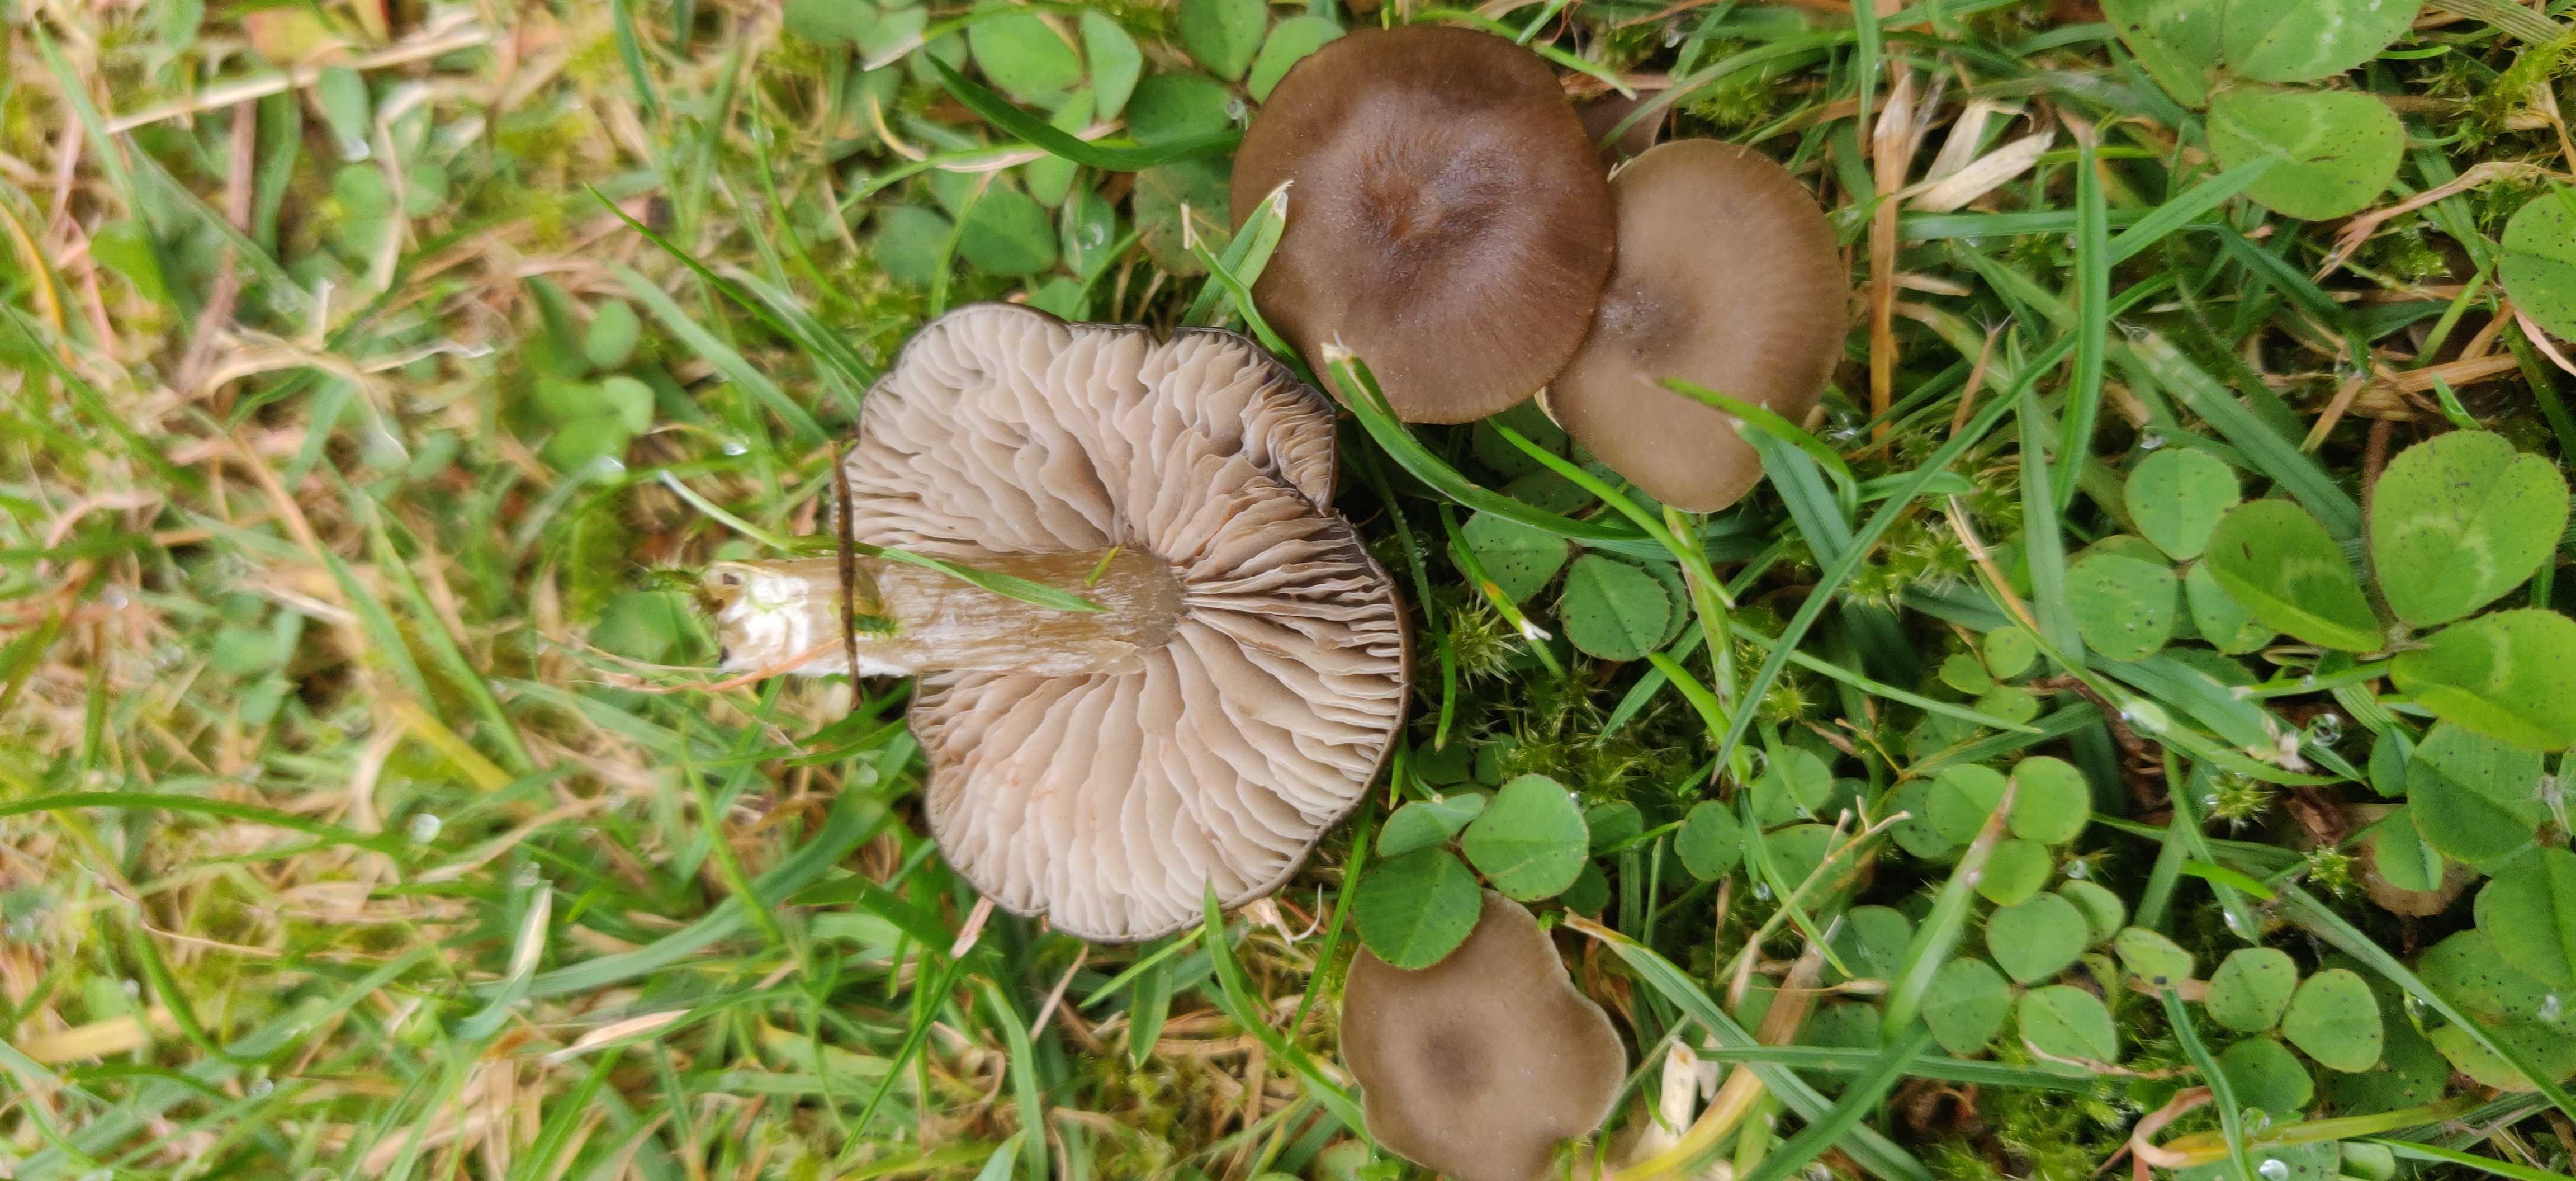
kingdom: Fungi
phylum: Basidiomycota
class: Agaricomycetes
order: Agaricales
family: Entolomataceae
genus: Entoloma
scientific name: Entoloma
